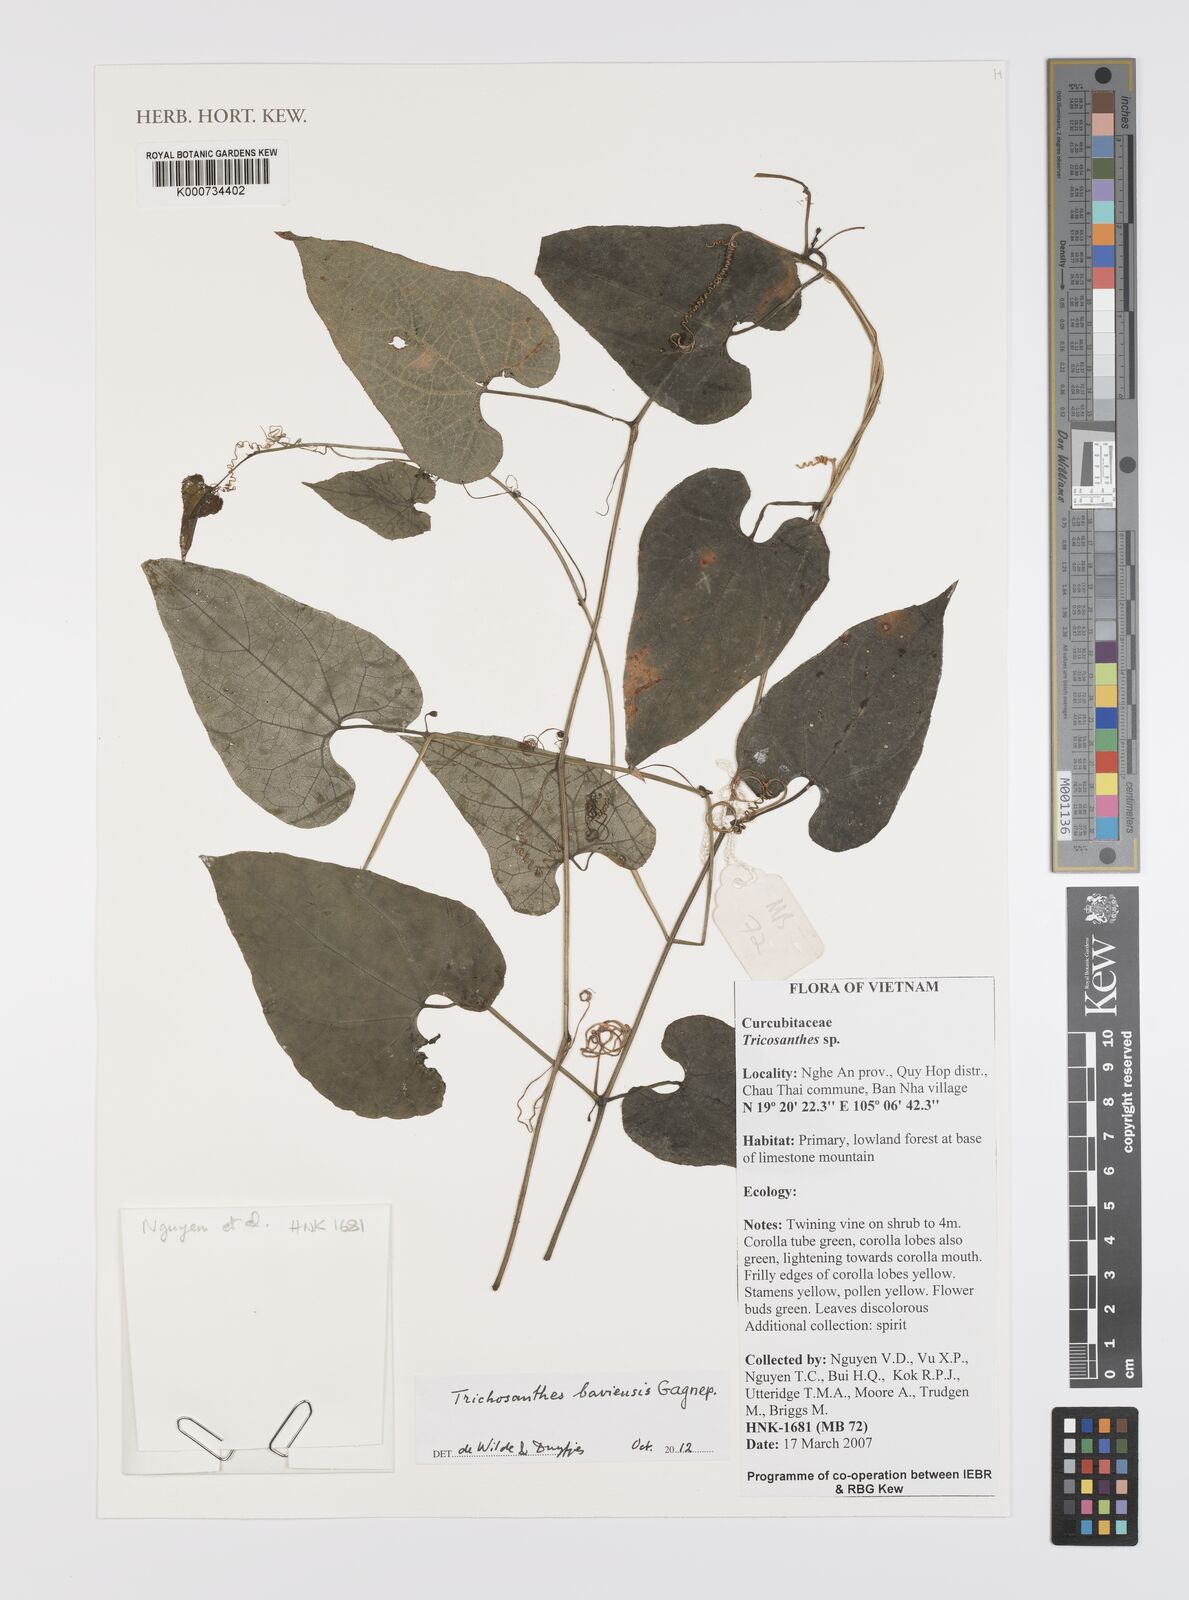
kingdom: Plantae
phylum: Tracheophyta
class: Magnoliopsida
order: Cucurbitales
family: Cucurbitaceae
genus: Trichosanthes
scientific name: Trichosanthes baviensis
